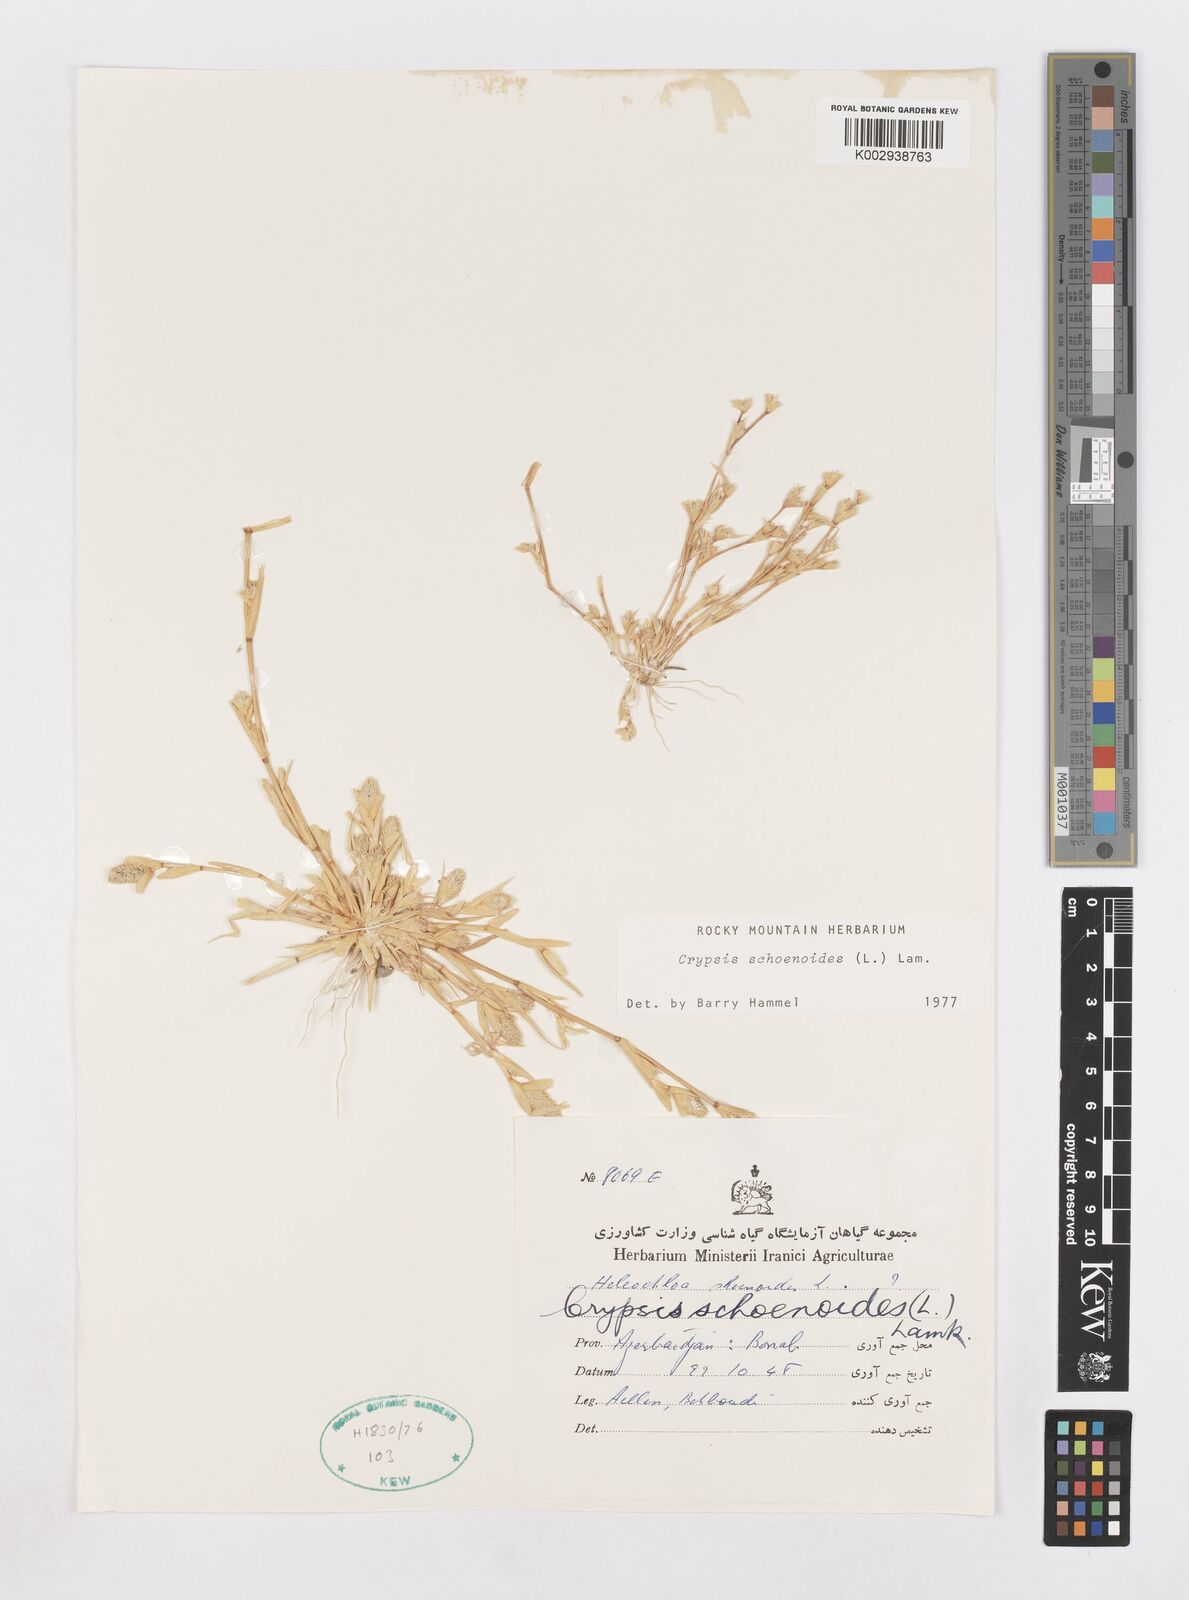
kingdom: Plantae
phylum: Tracheophyta
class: Liliopsida
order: Poales
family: Poaceae
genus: Sporobolus
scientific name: Sporobolus schoenoides
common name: Rush-like timothy
